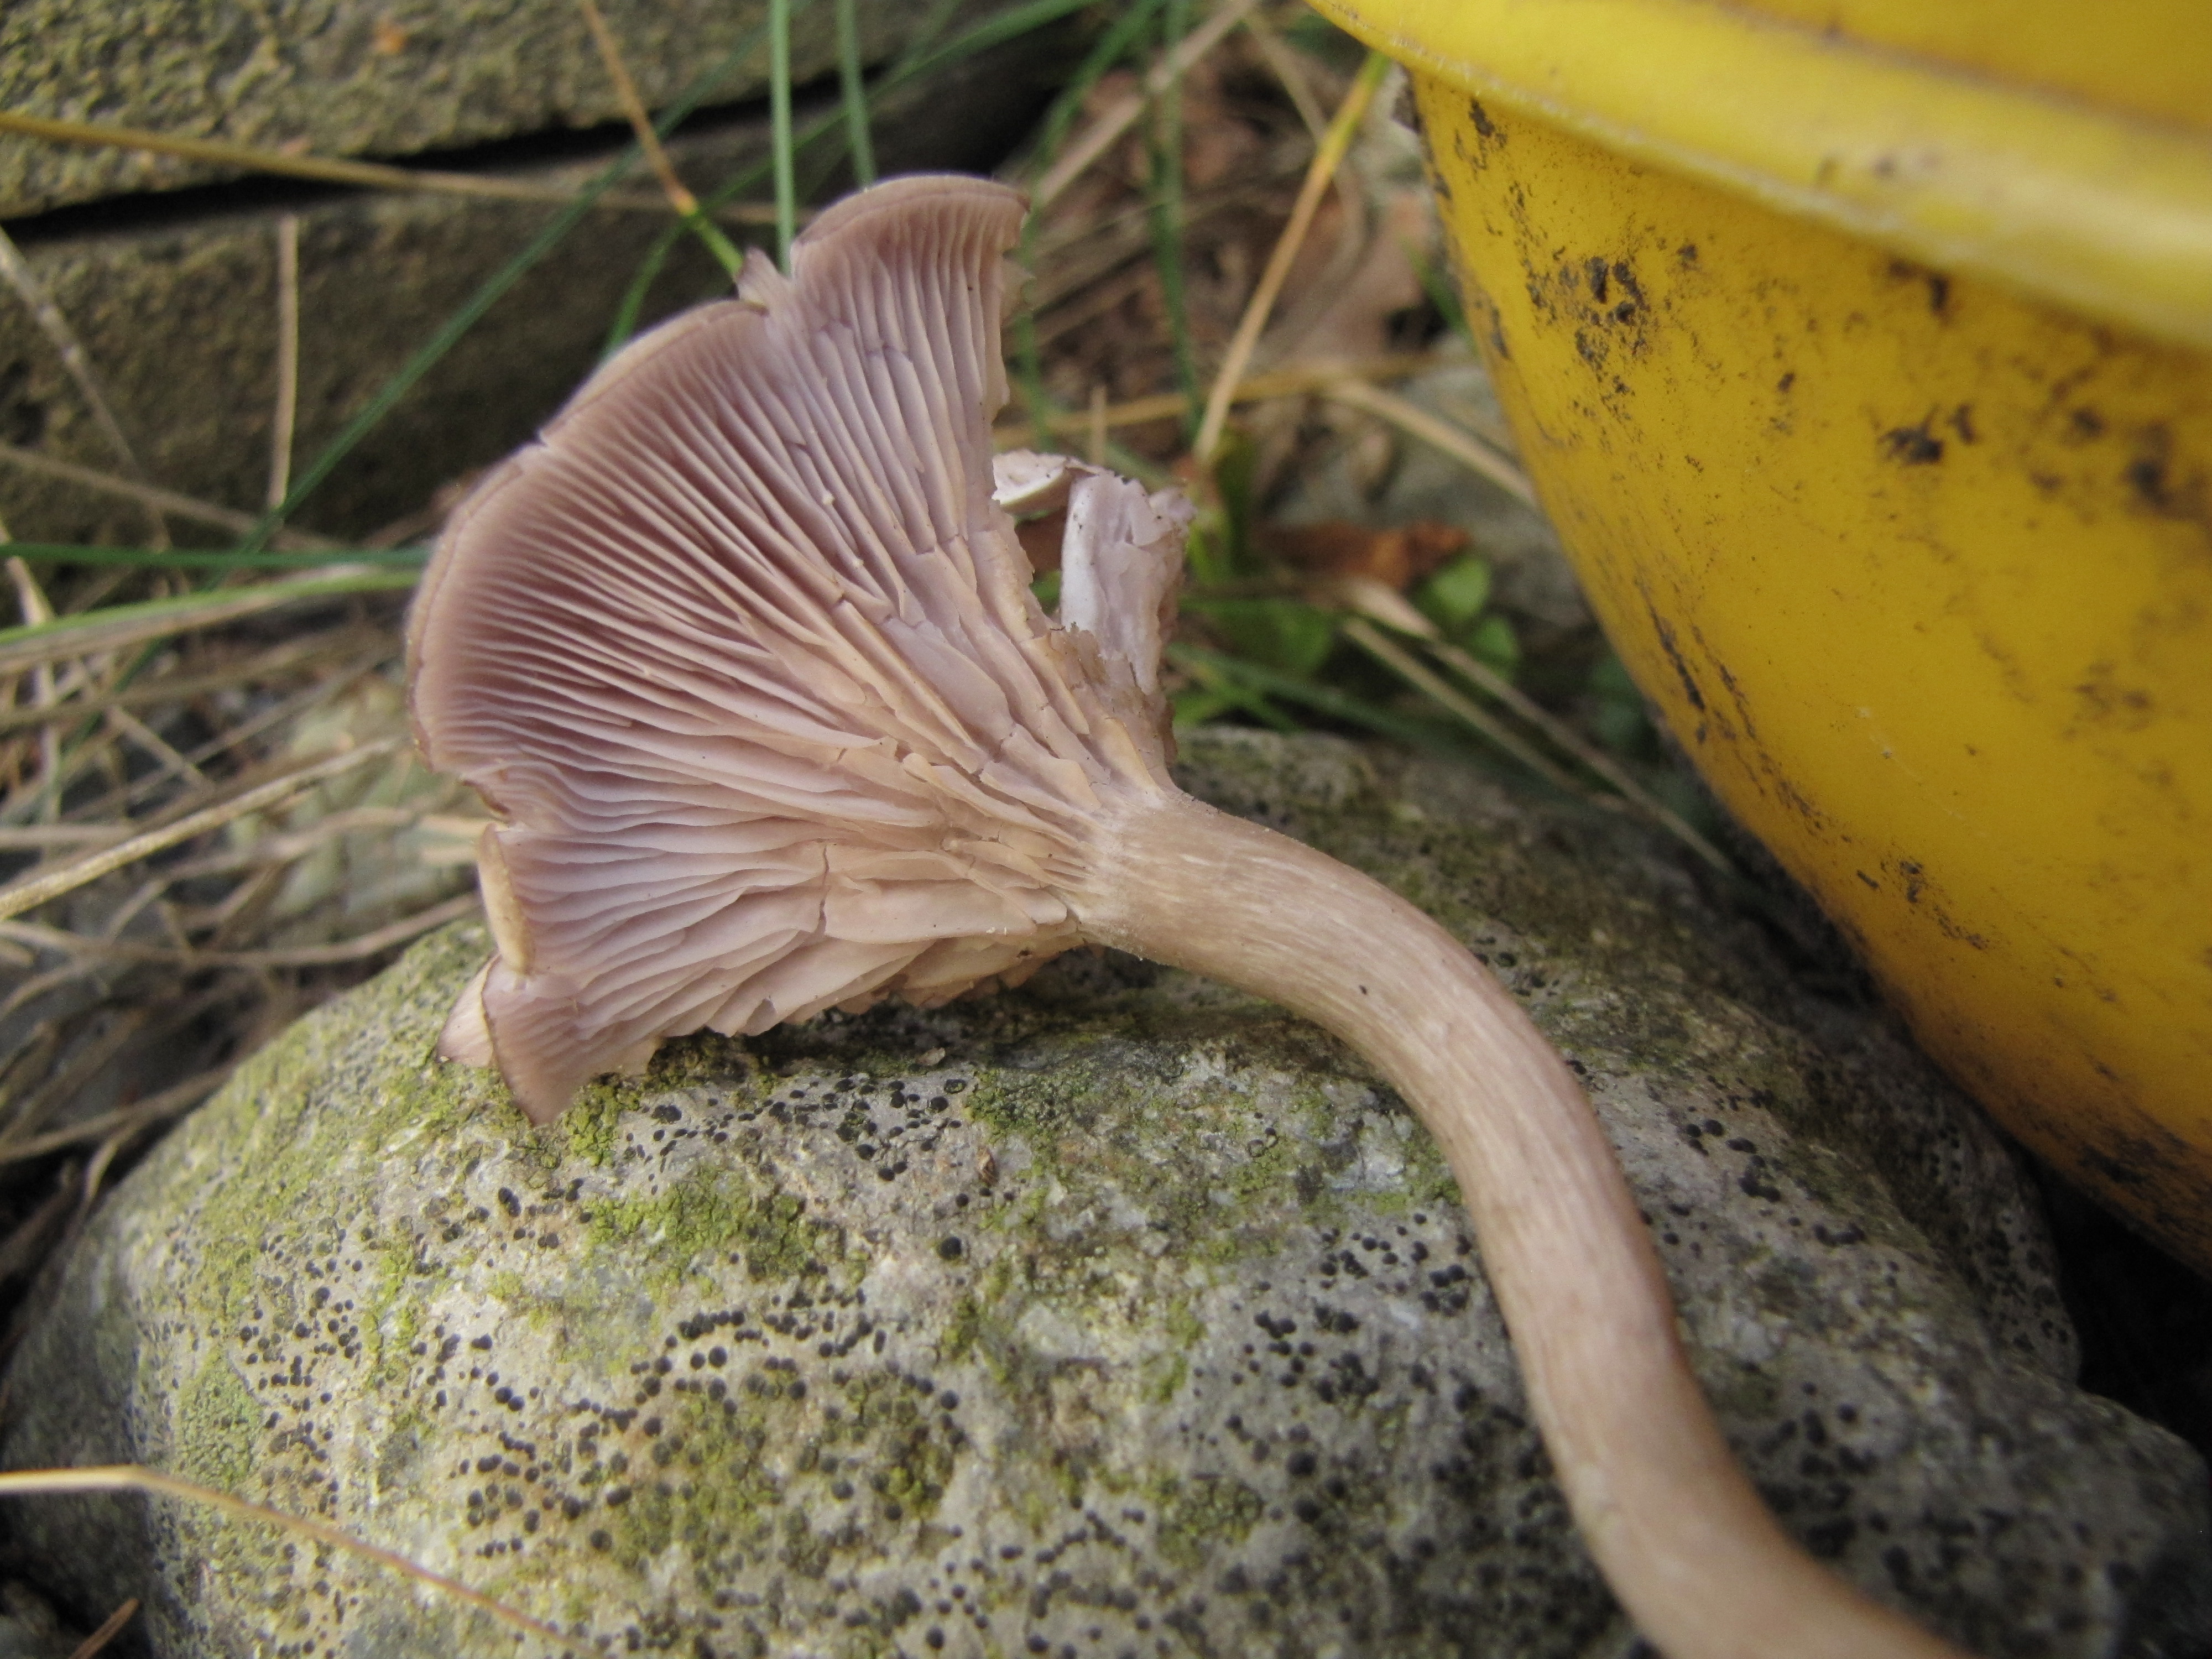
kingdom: Fungi
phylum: Basidiomycota
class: Agaricomycetes
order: Agaricales
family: Lyophyllaceae
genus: Myochromella
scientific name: Myochromella inolens
